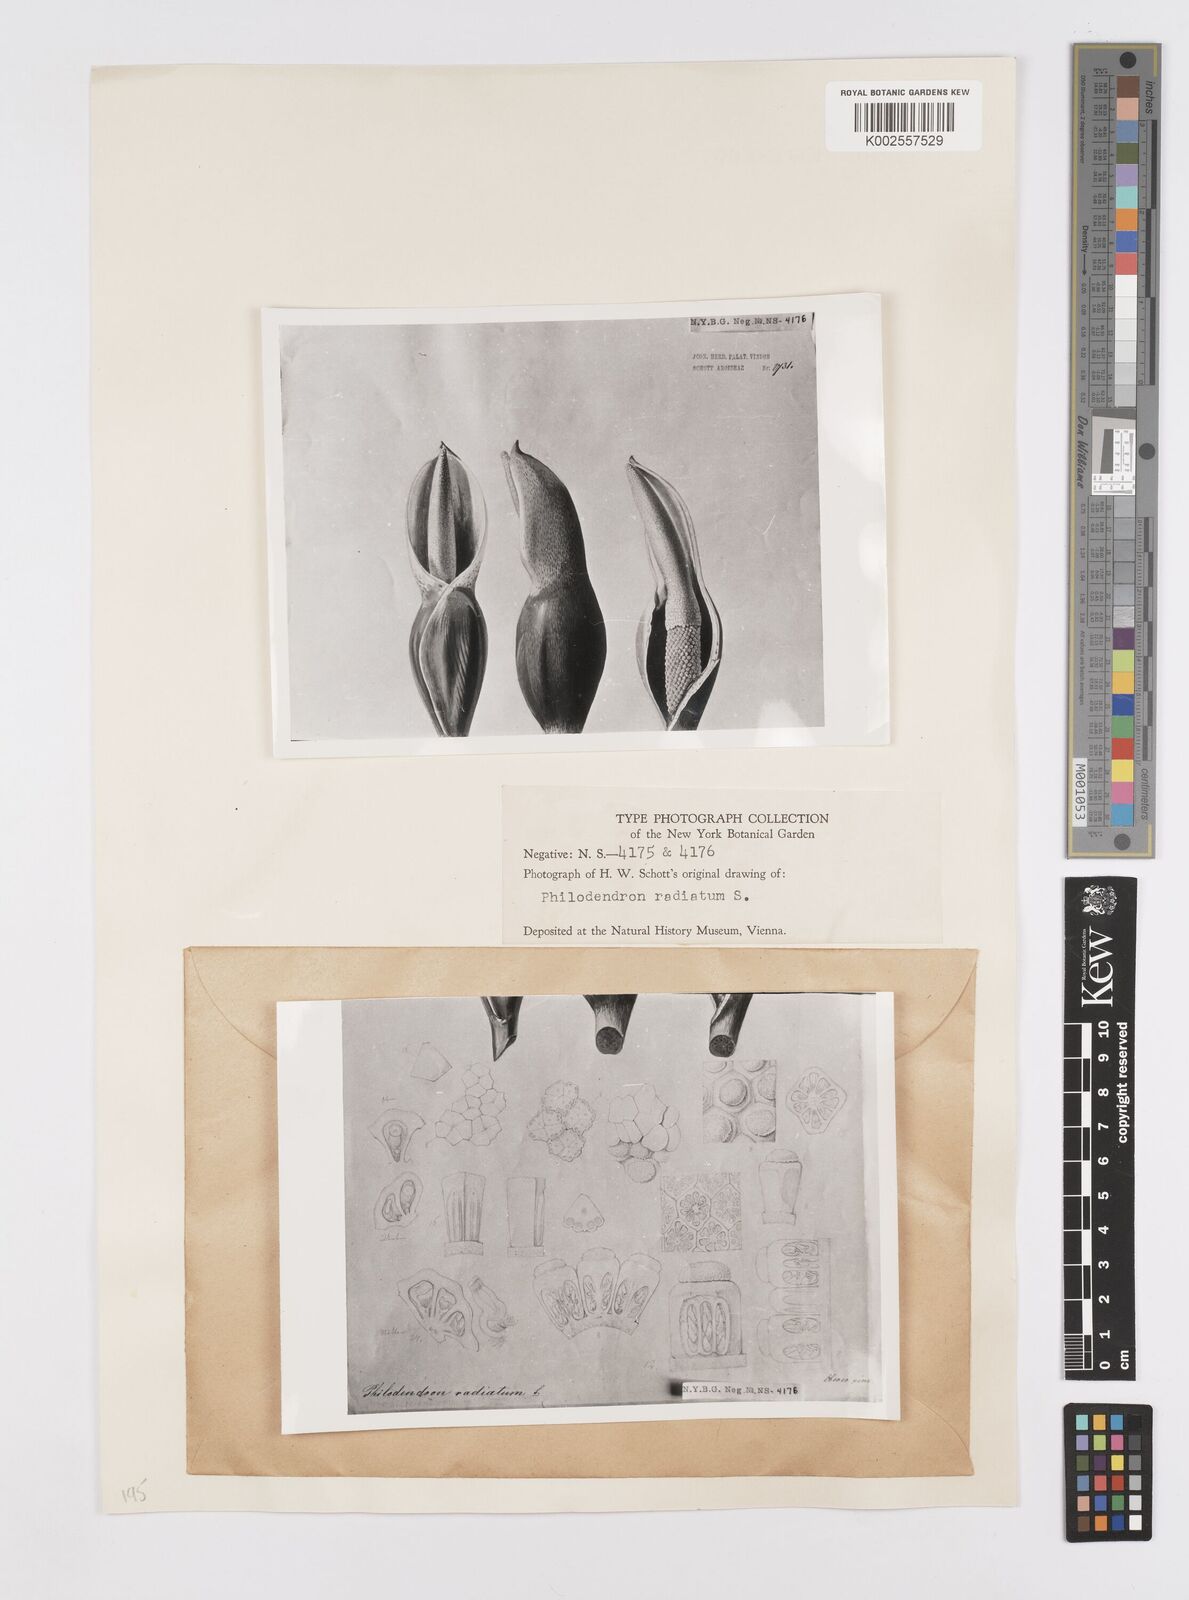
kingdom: Plantae
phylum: Tracheophyta
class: Liliopsida
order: Alismatales
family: Araceae
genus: Philodendron
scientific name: Philodendron radiatum
